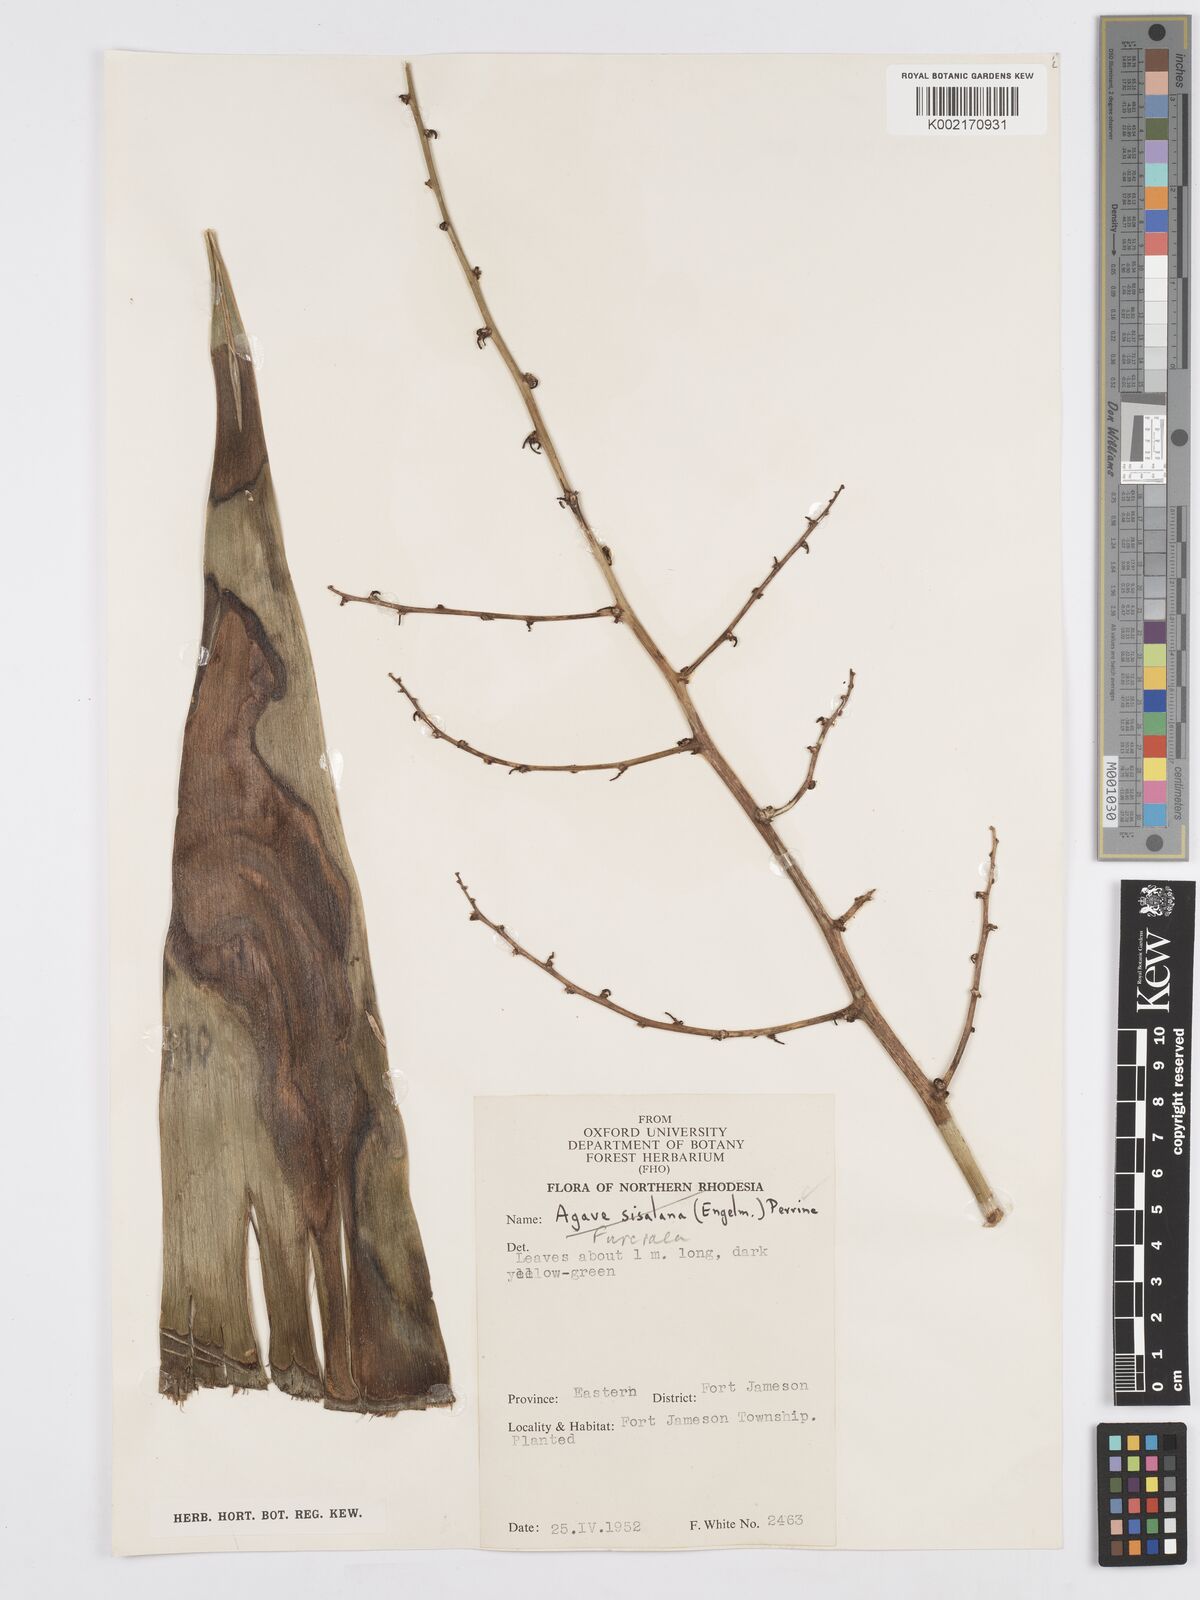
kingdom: Plantae
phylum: Tracheophyta
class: Liliopsida
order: Asparagales
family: Asparagaceae
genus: Furcraea
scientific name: Furcraea
